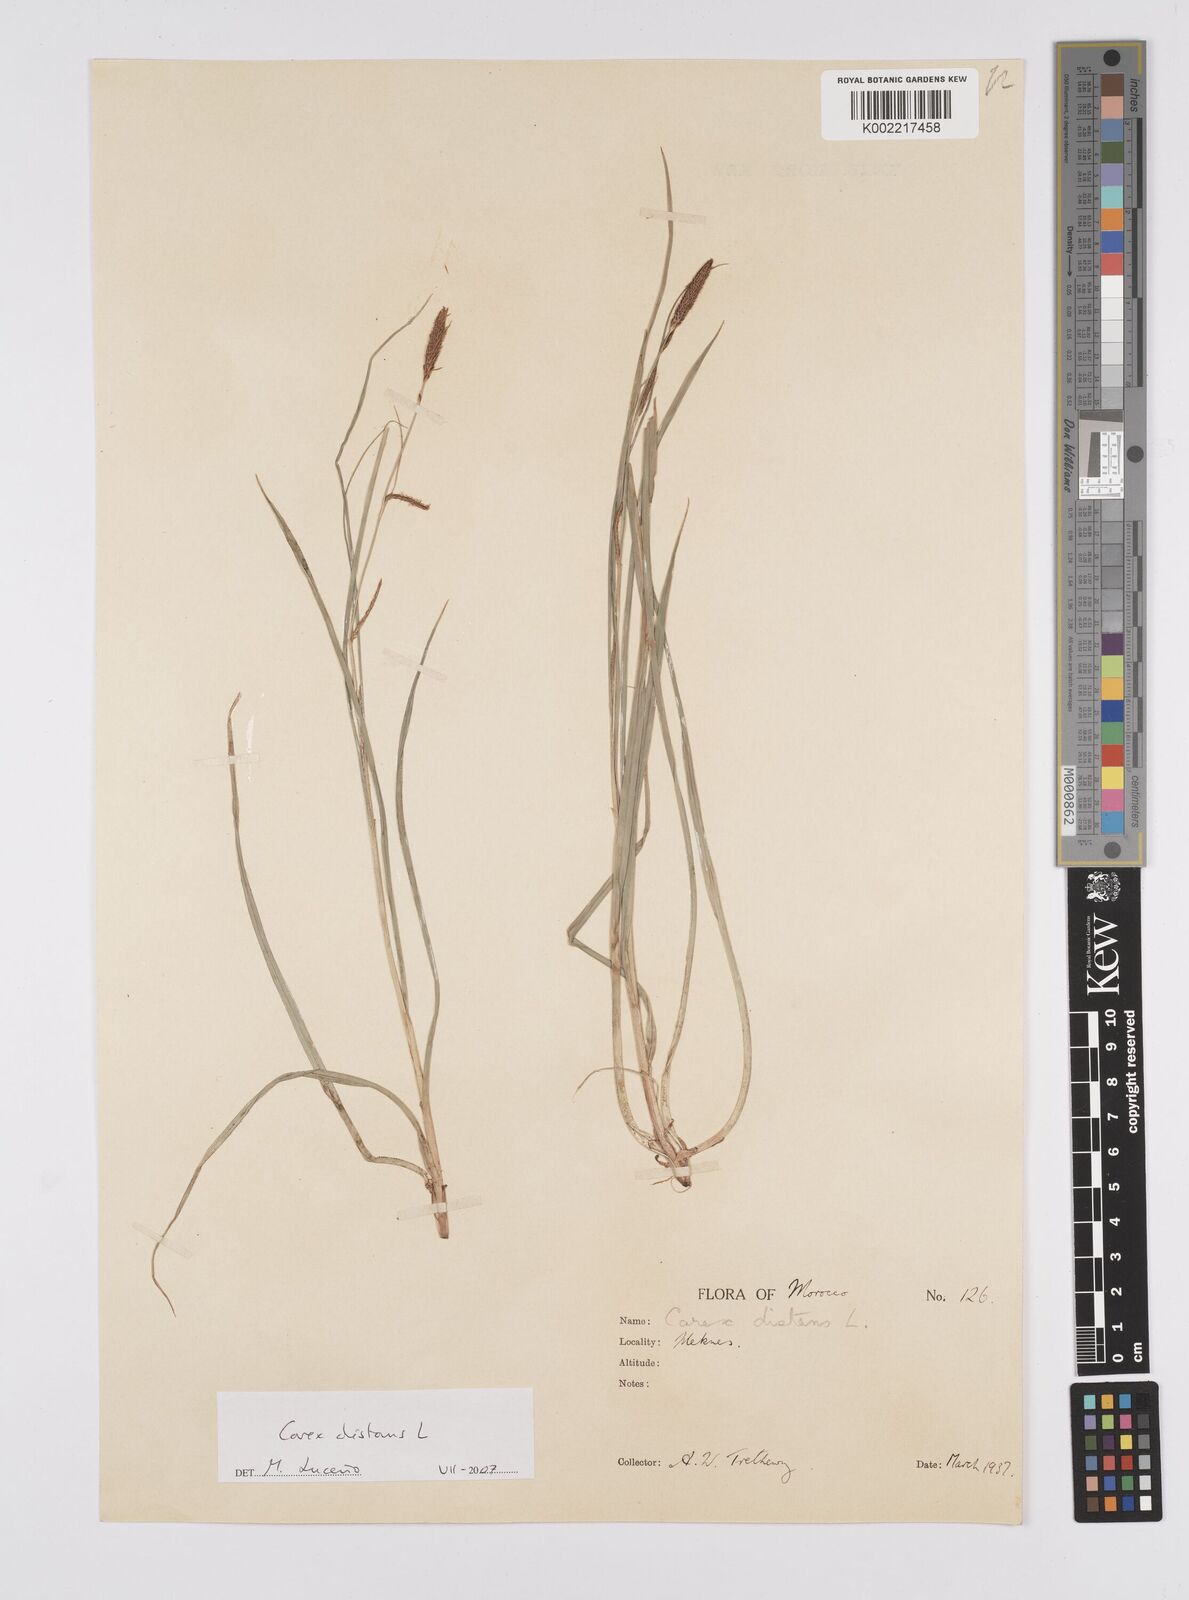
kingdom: Plantae
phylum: Tracheophyta
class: Liliopsida
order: Poales
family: Cyperaceae
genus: Carex
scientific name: Carex distans
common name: Distant sedge
